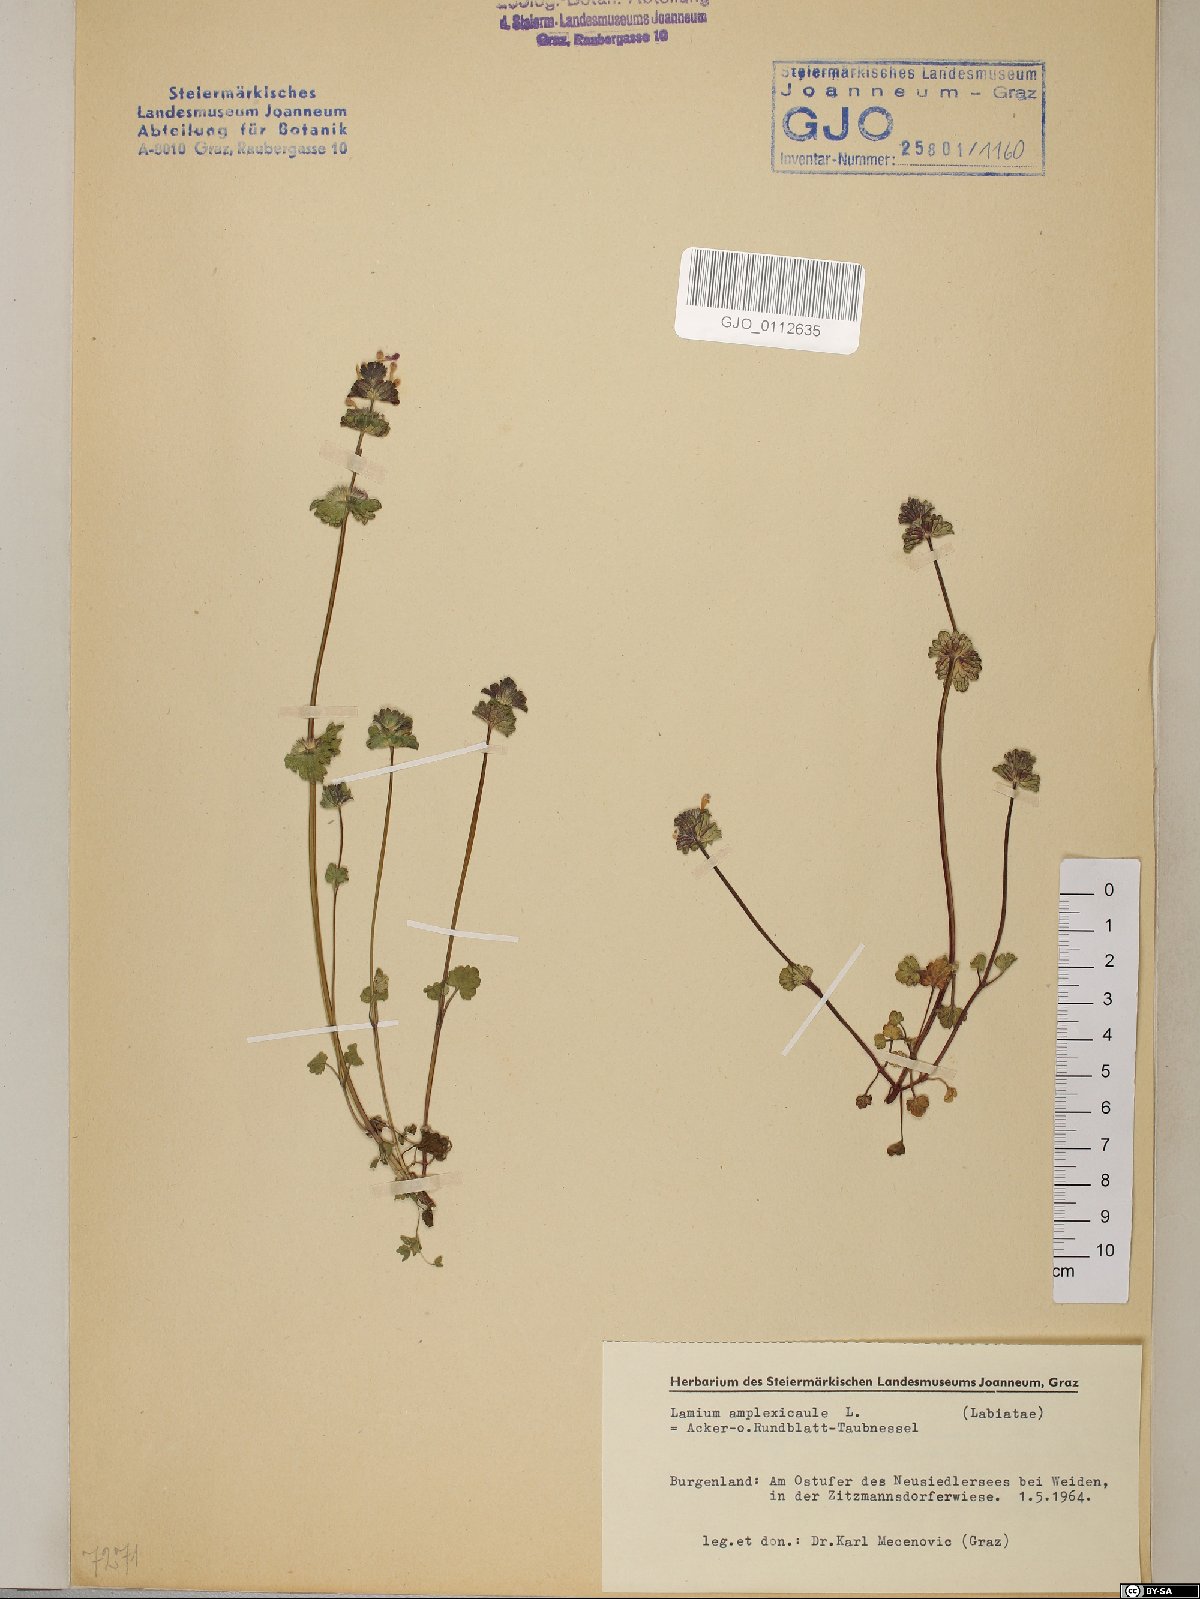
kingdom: Plantae
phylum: Tracheophyta
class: Magnoliopsida
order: Lamiales
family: Lamiaceae
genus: Lamium
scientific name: Lamium amplexicaule
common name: Henbit dead-nettle
